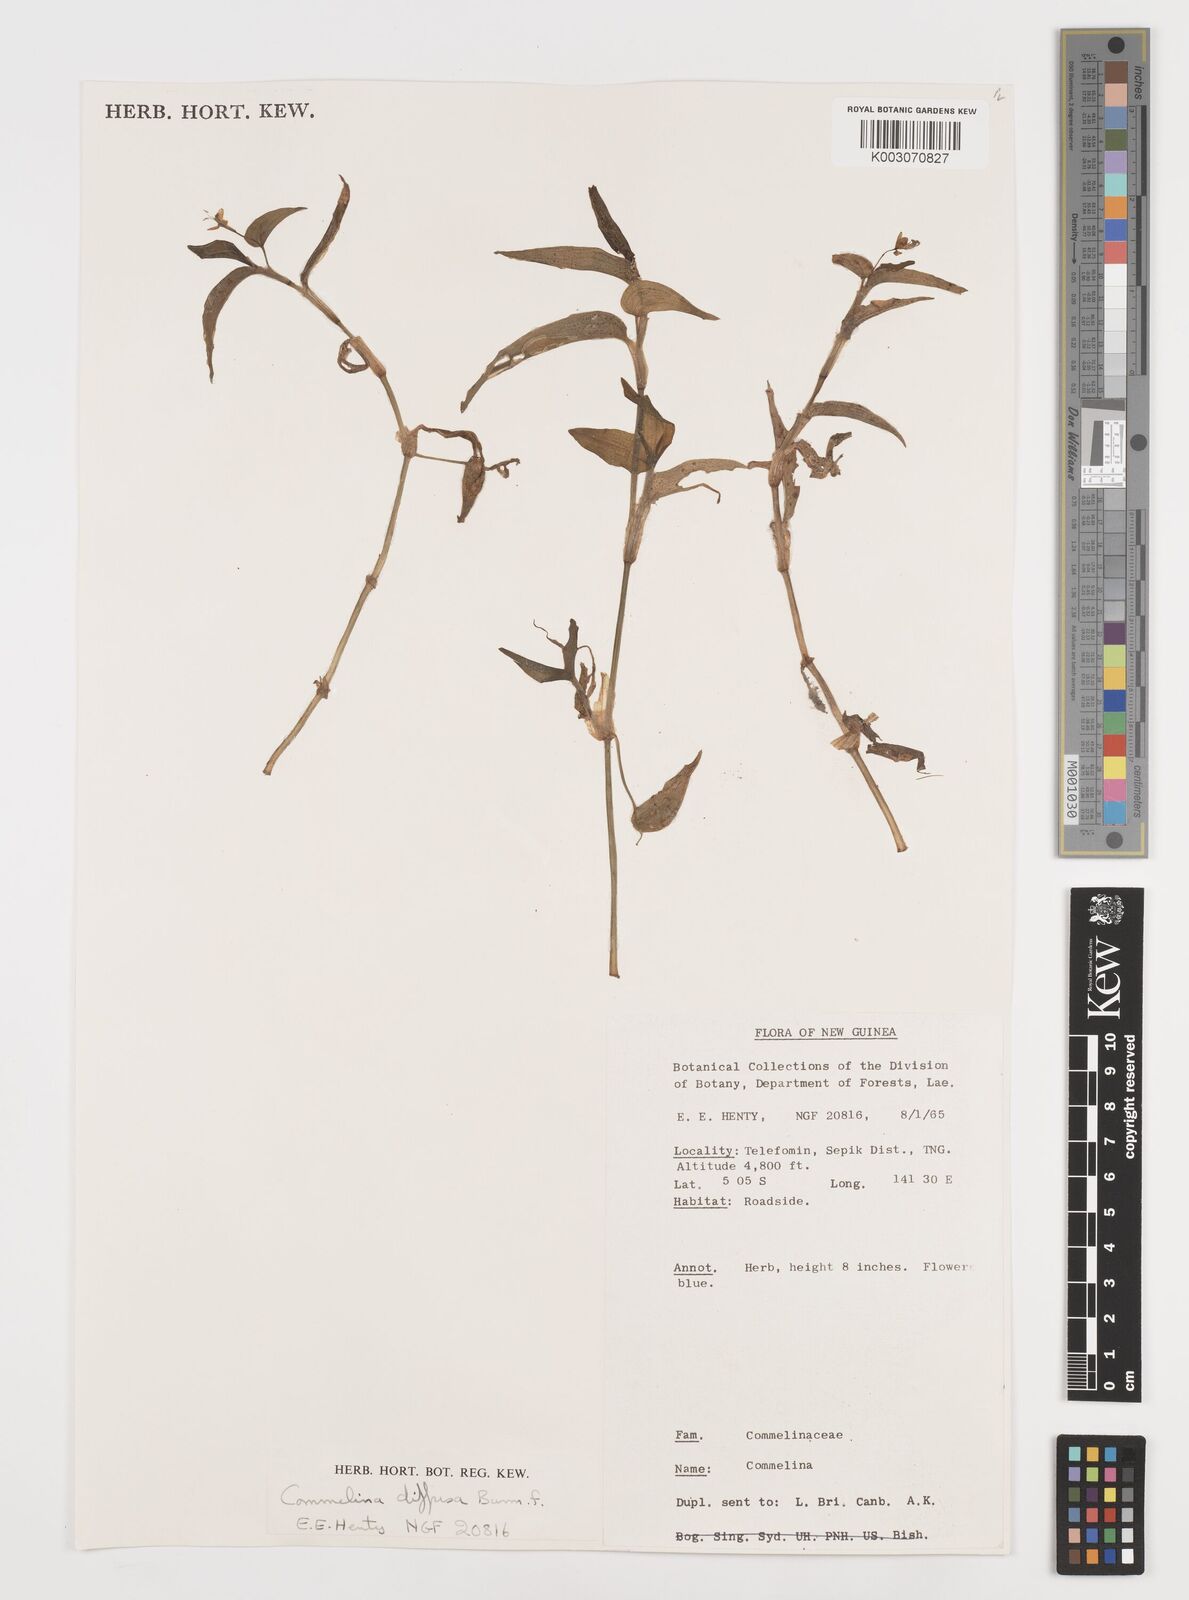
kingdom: Plantae
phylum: Tracheophyta
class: Liliopsida
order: Commelinales
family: Commelinaceae
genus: Commelina
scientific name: Commelina diffusa
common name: Climbing dayflower
